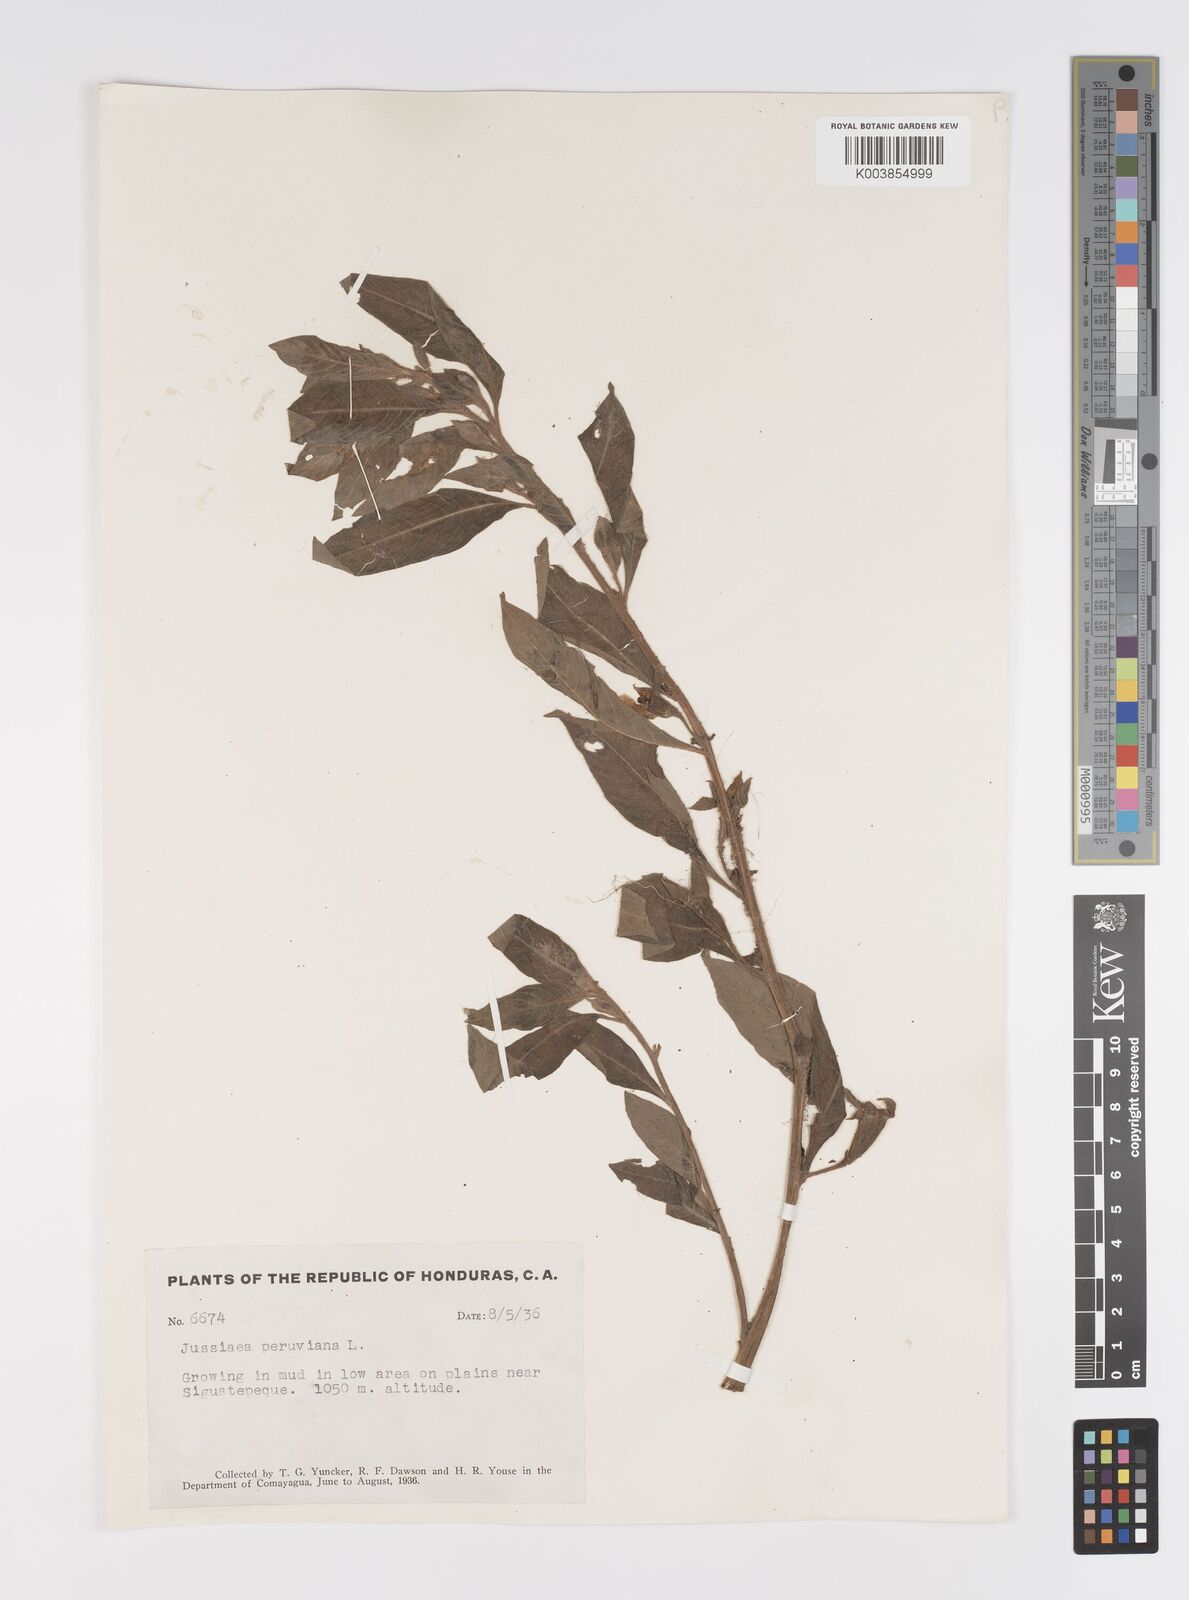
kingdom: Plantae
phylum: Tracheophyta
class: Magnoliopsida
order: Myrtales
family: Onagraceae
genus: Ludwigia
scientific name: Ludwigia peruviana
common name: Peruvian primrose-willow
